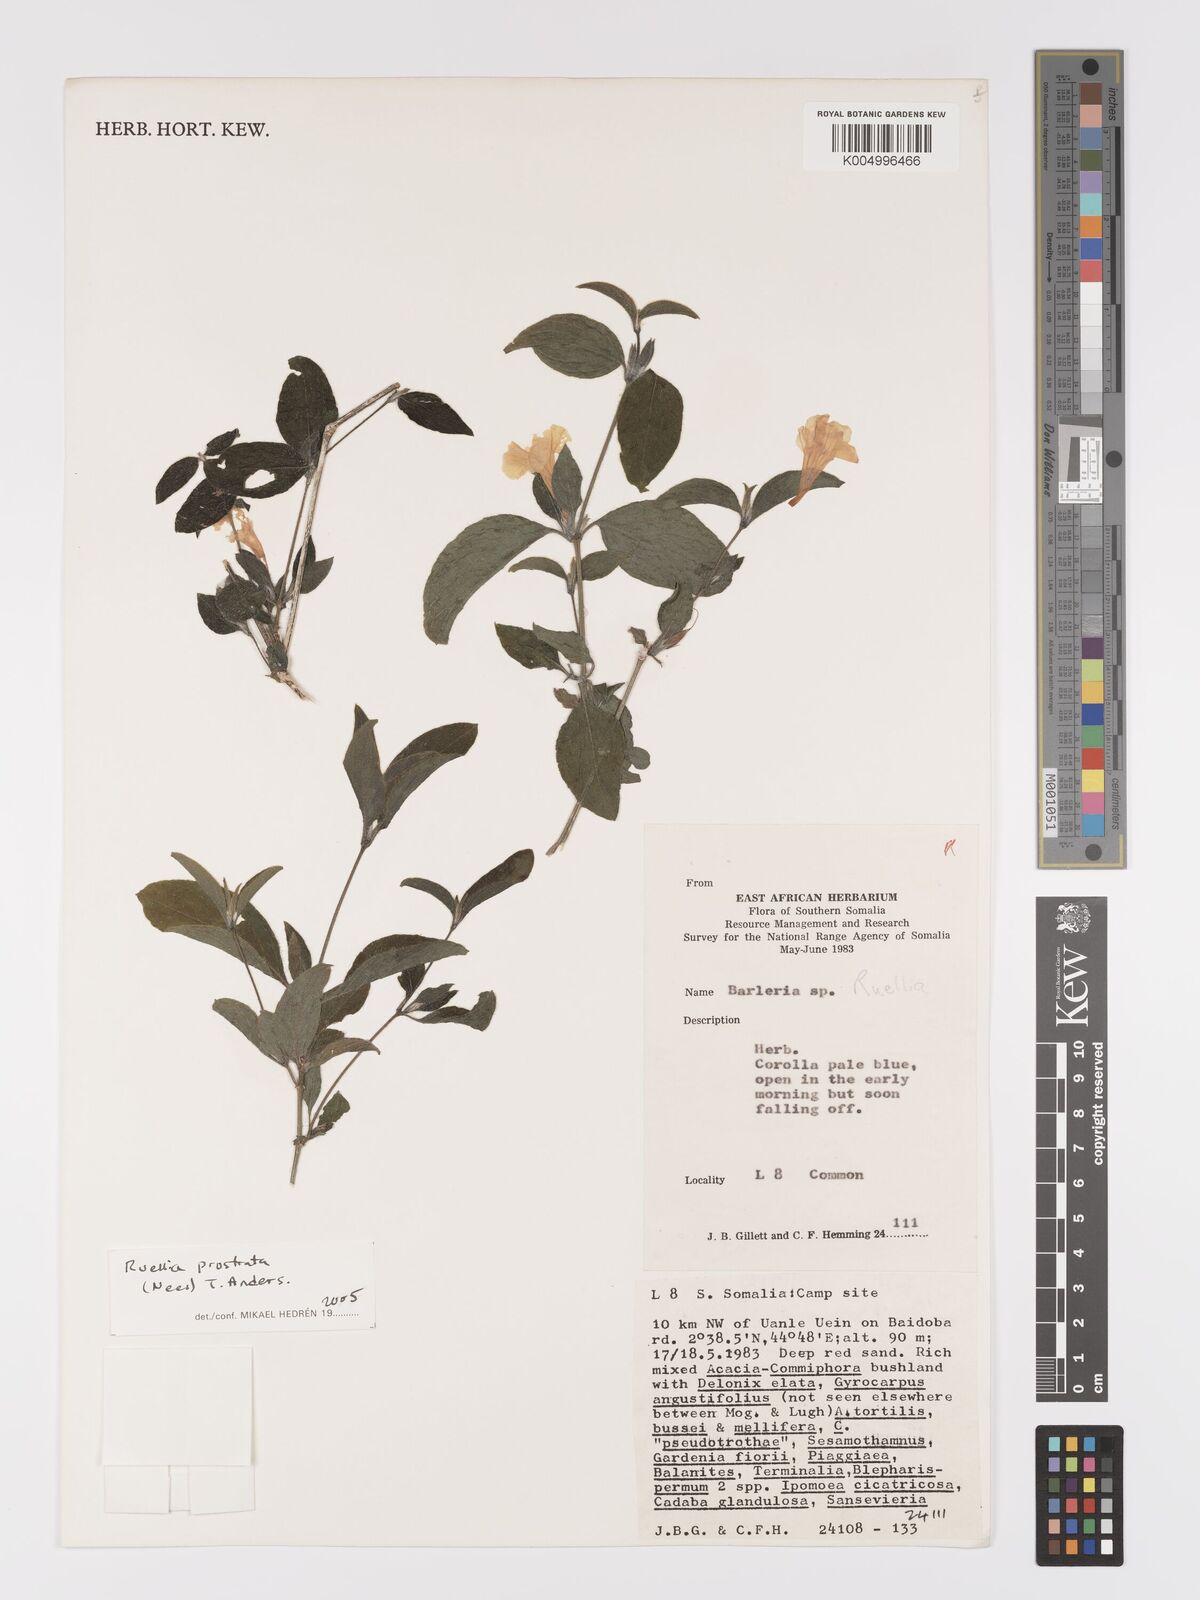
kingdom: Plantae
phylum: Tracheophyta
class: Magnoliopsida
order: Lamiales
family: Acanthaceae
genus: Ruellia
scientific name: Ruellia
